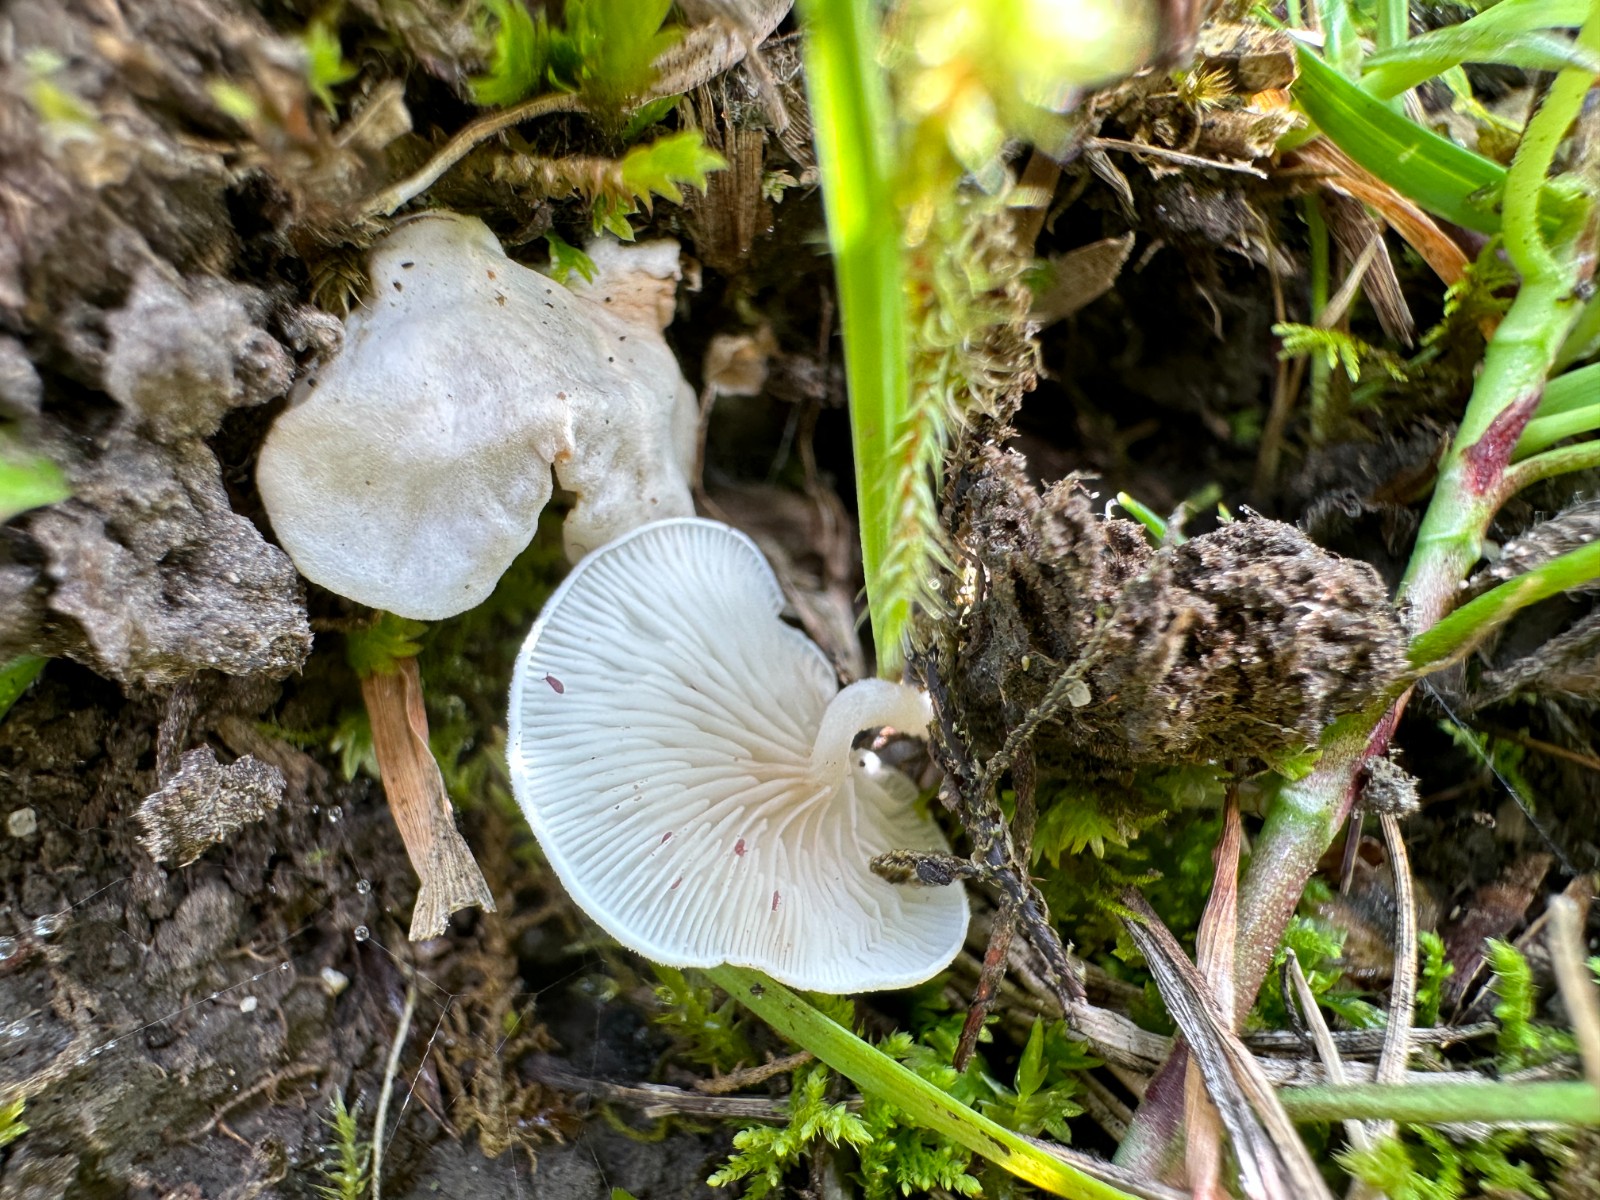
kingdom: Fungi
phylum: Basidiomycota
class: Agaricomycetes
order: Agaricales
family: Entolomataceae
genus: Clitopilus
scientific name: Clitopilus scyphoides
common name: spinkel melhat
